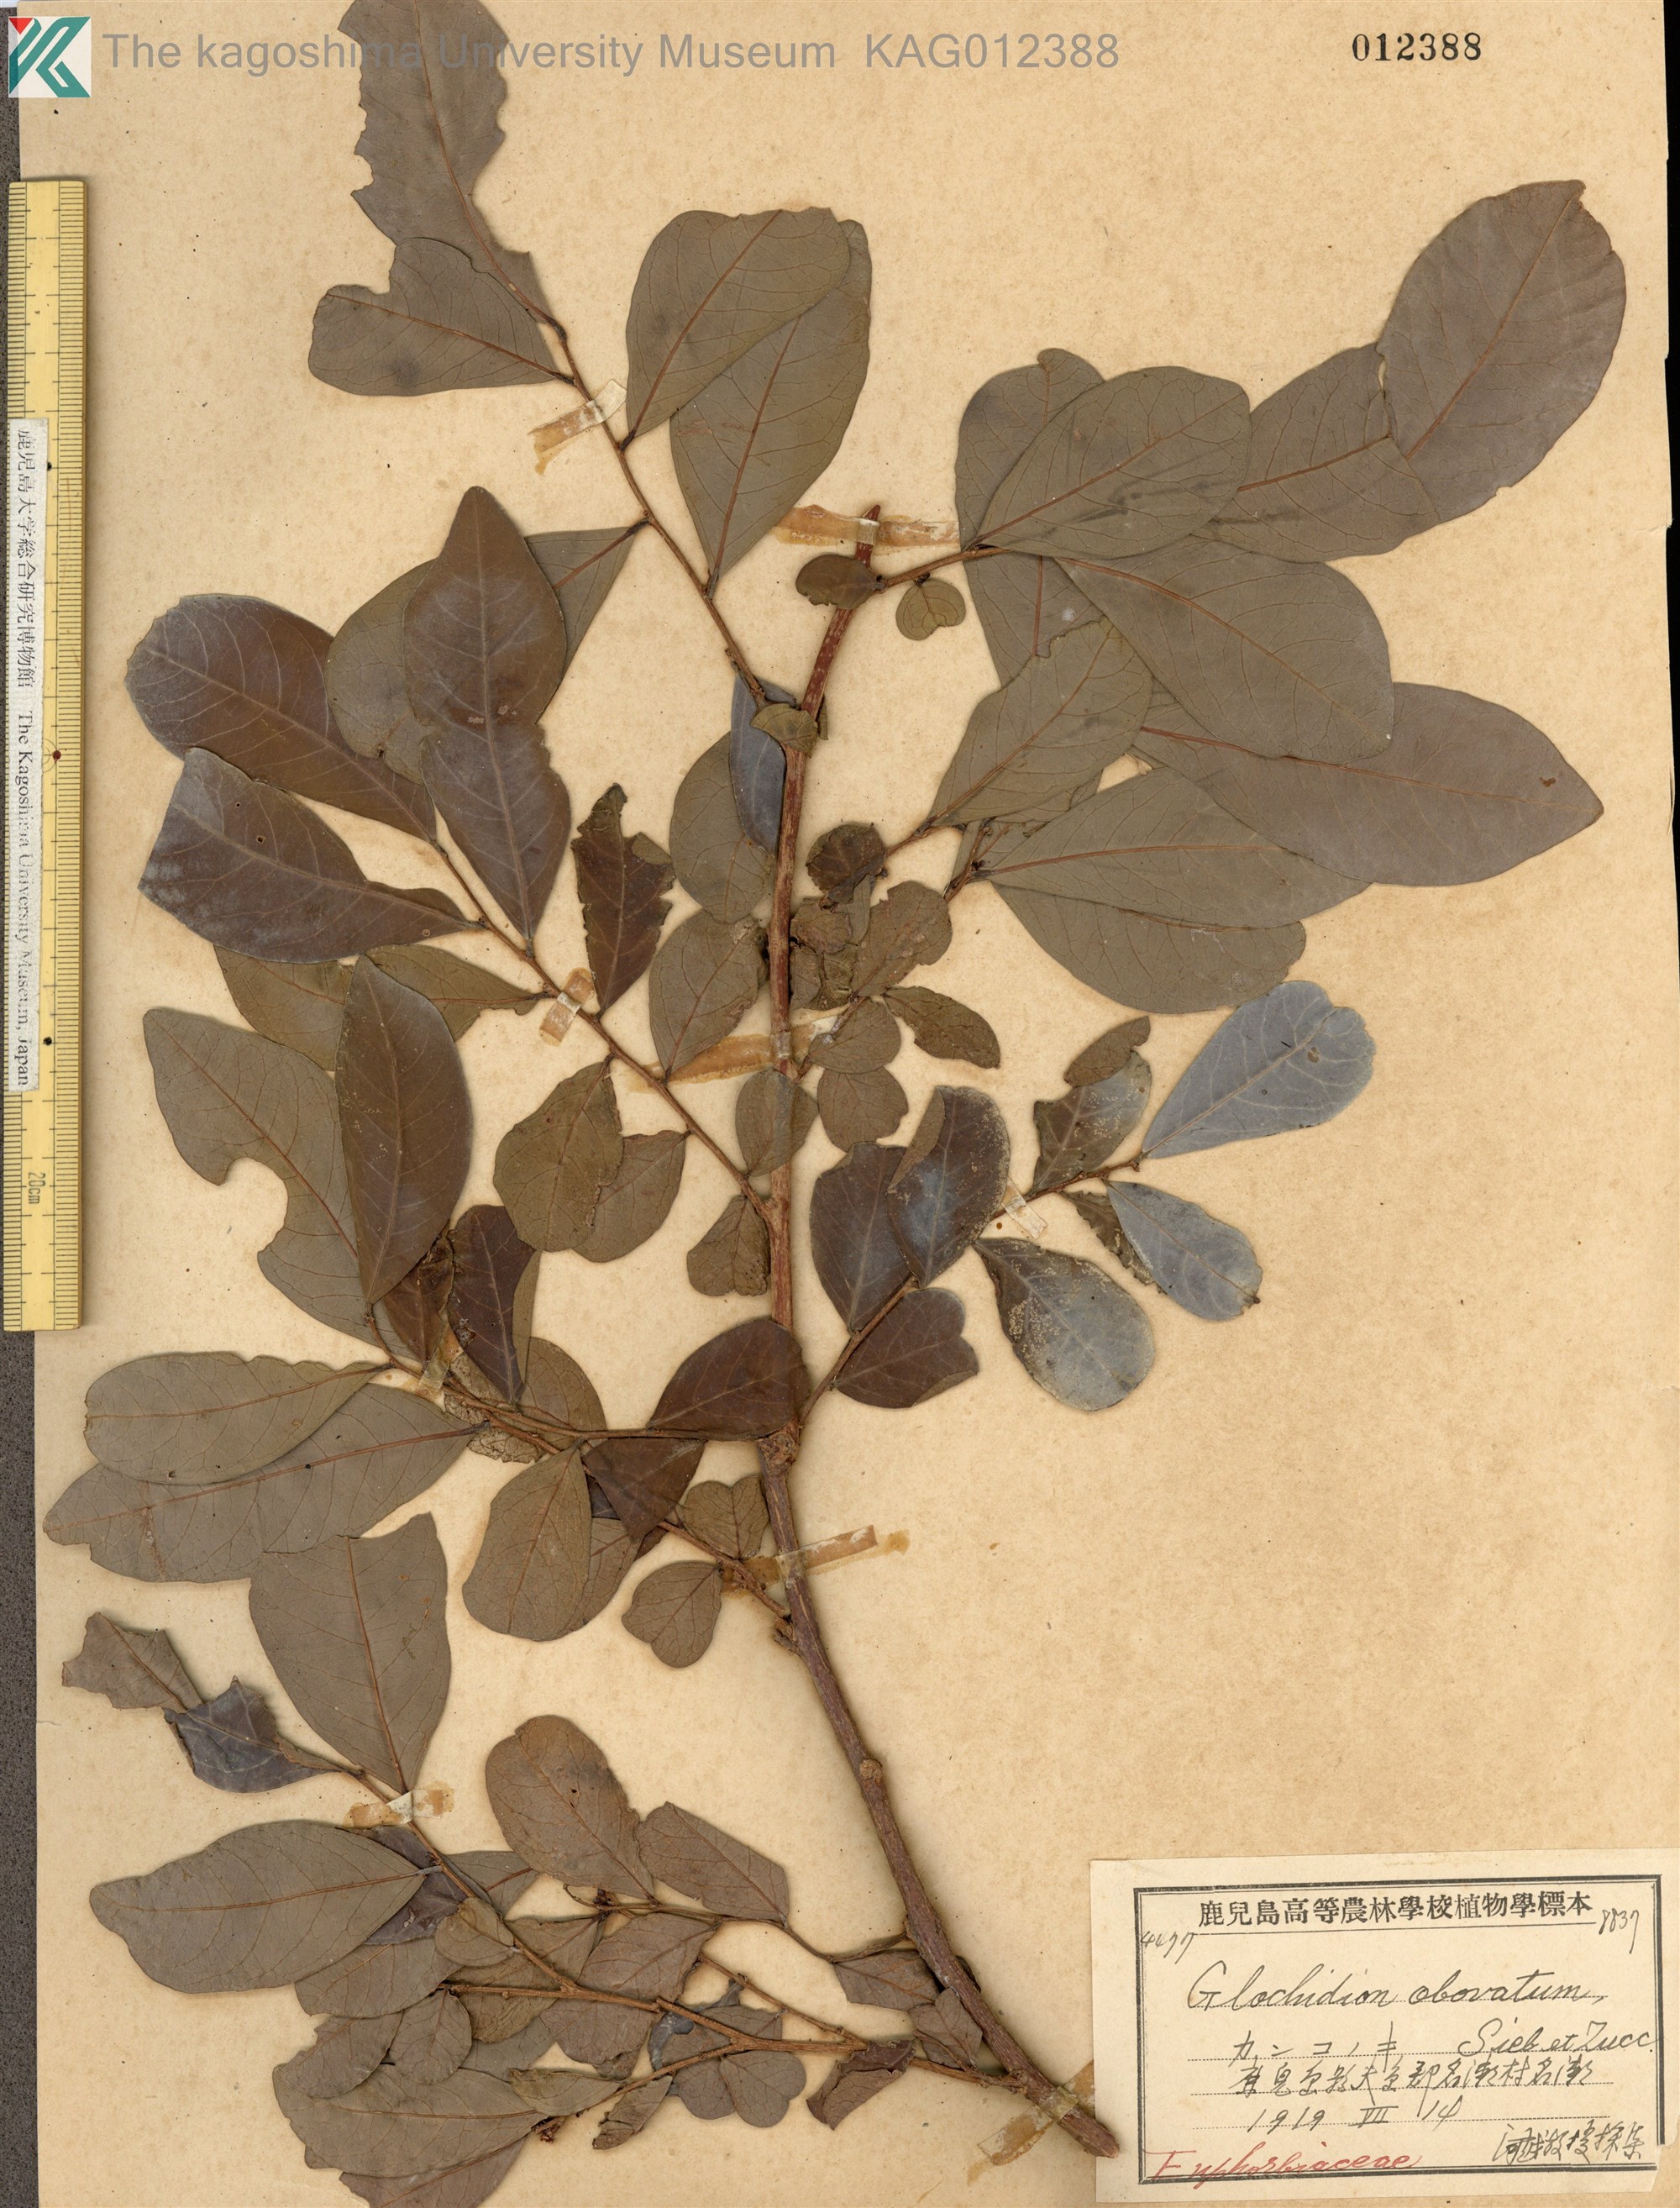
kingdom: Plantae
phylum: Tracheophyta
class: Magnoliopsida
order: Malpighiales
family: Phyllanthaceae
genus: Glochidion
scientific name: Glochidion obovatum
